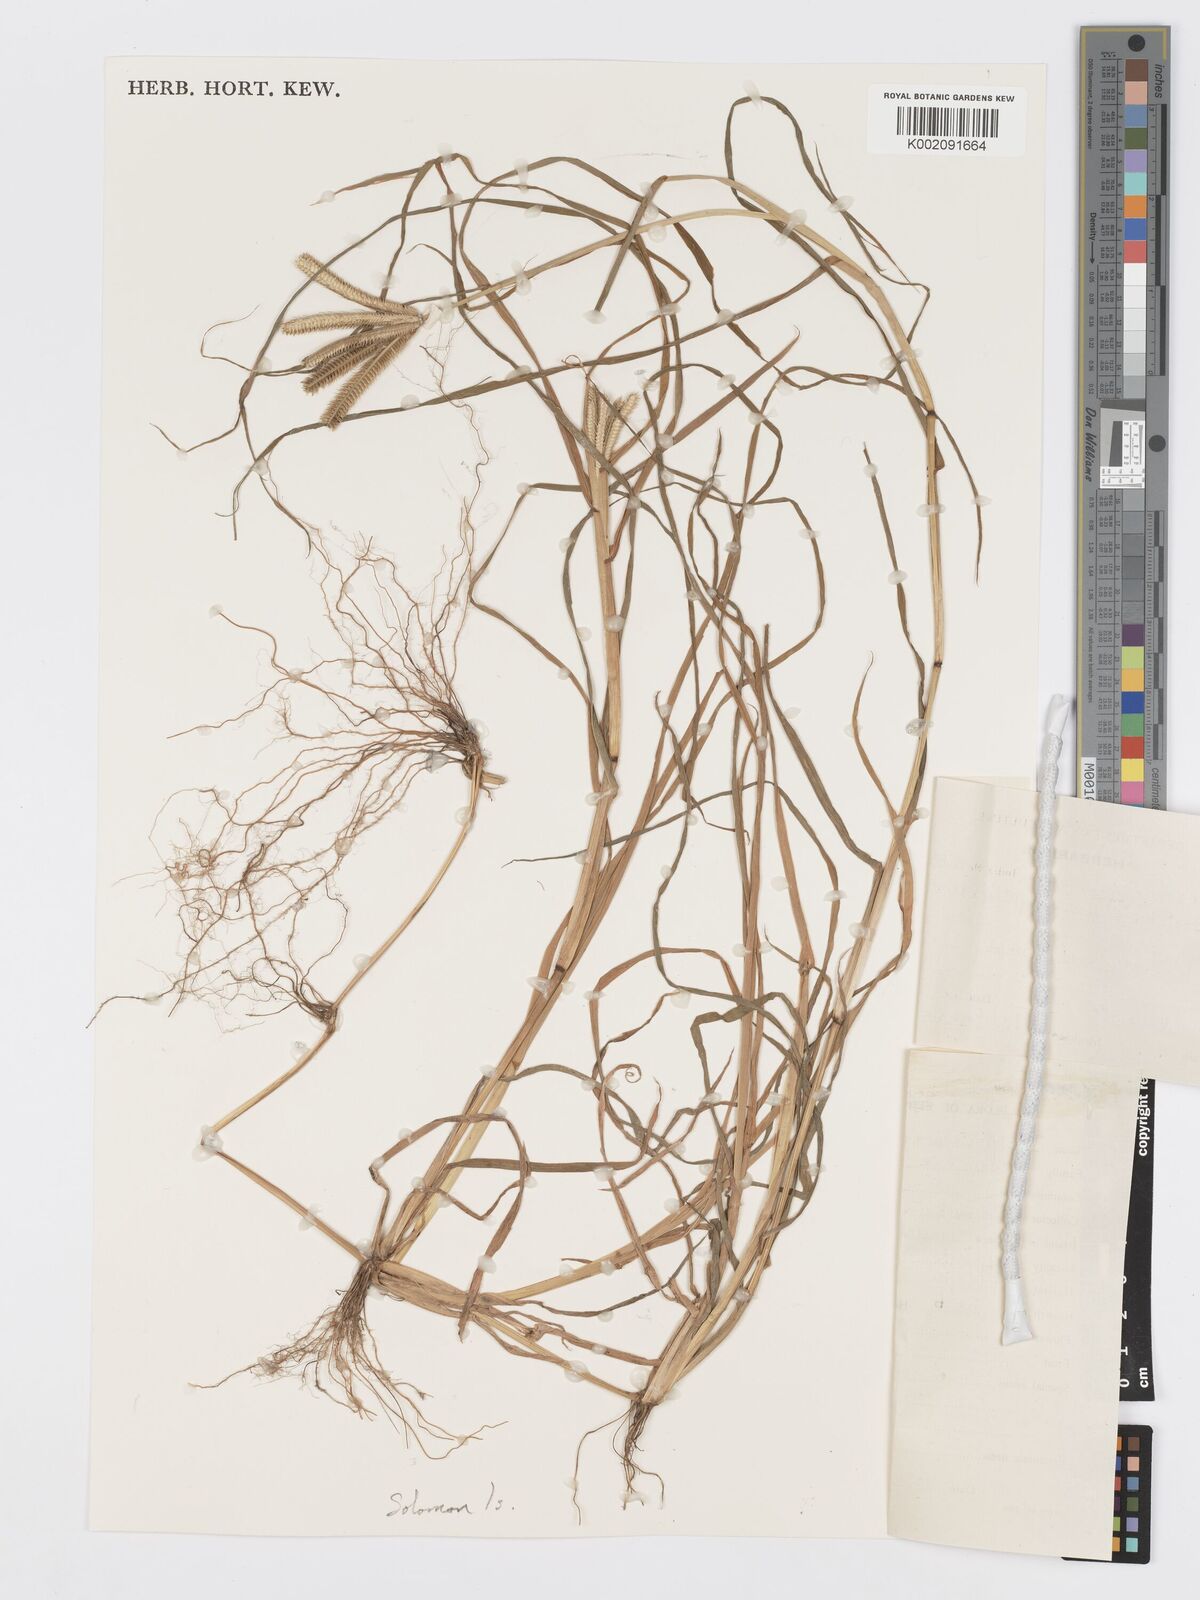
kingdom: Plantae
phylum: Tracheophyta
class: Liliopsida
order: Poales
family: Poaceae
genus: Dactyloctenium
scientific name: Dactyloctenium aegyptium
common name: Egyptian grass
